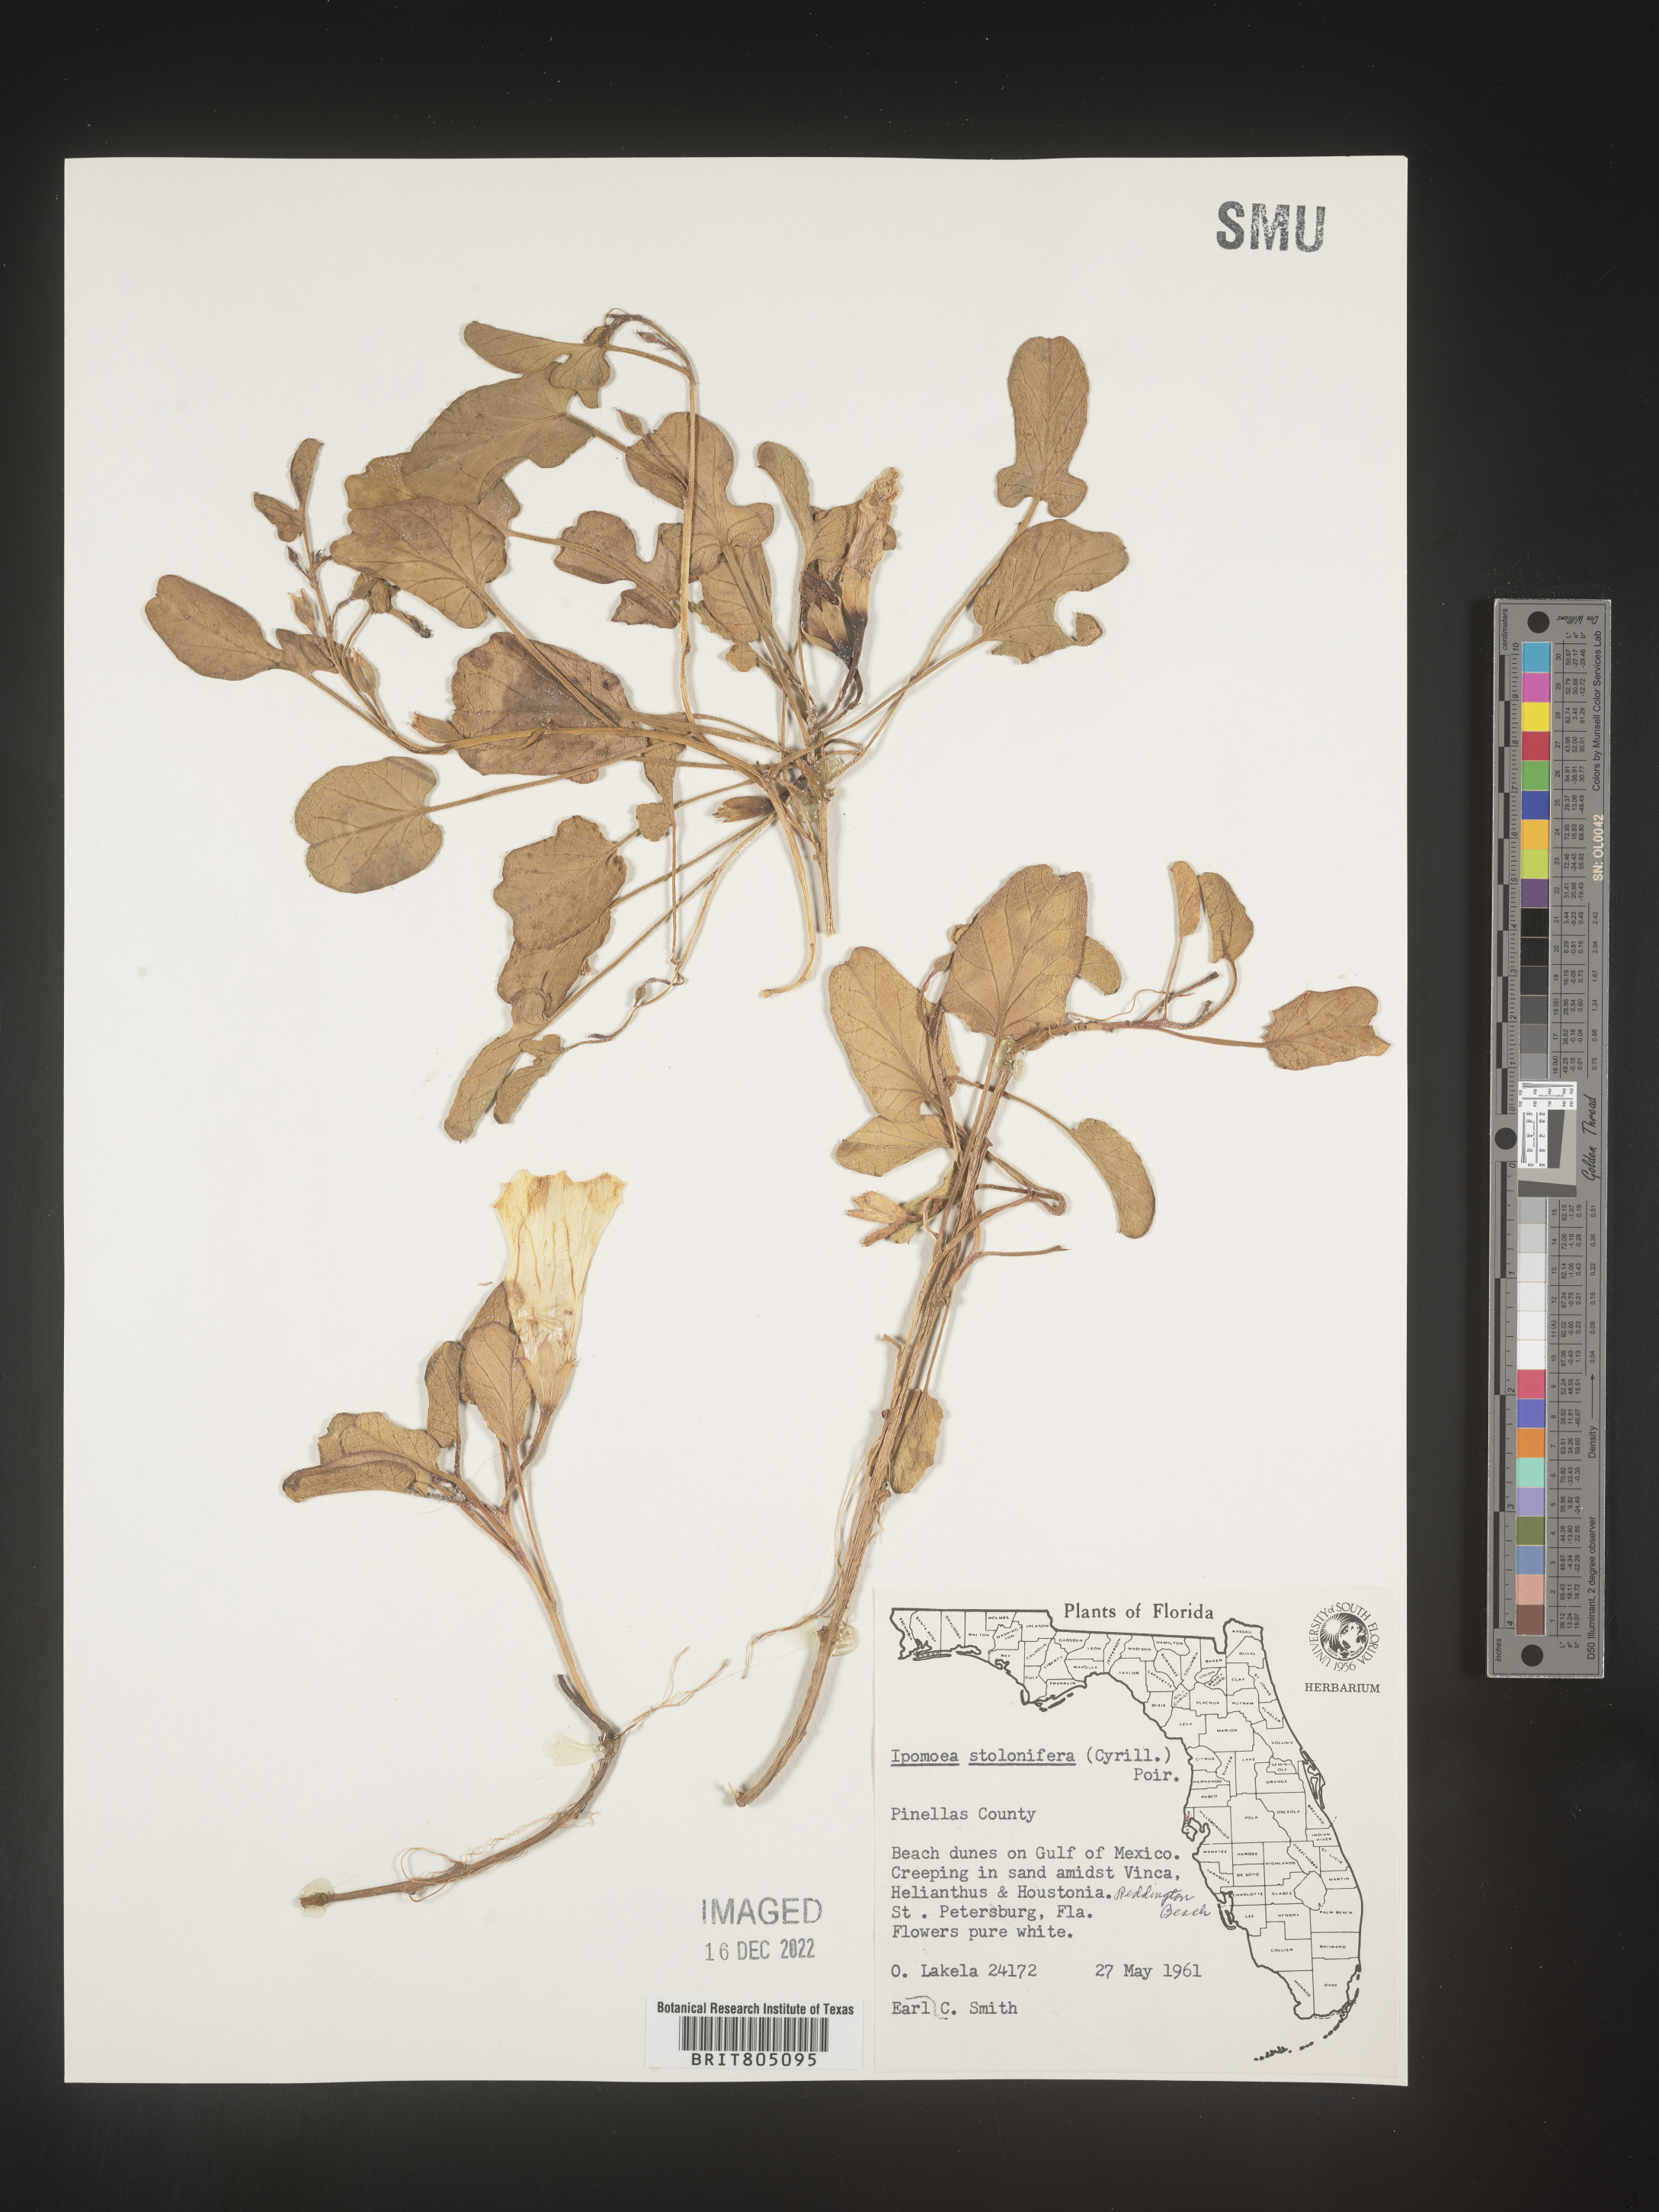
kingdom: Plantae
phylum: Tracheophyta
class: Magnoliopsida
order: Solanales
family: Convolvulaceae
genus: Ipomoea
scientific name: Ipomoea imperati
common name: Fiddle-leaf morning-glory
